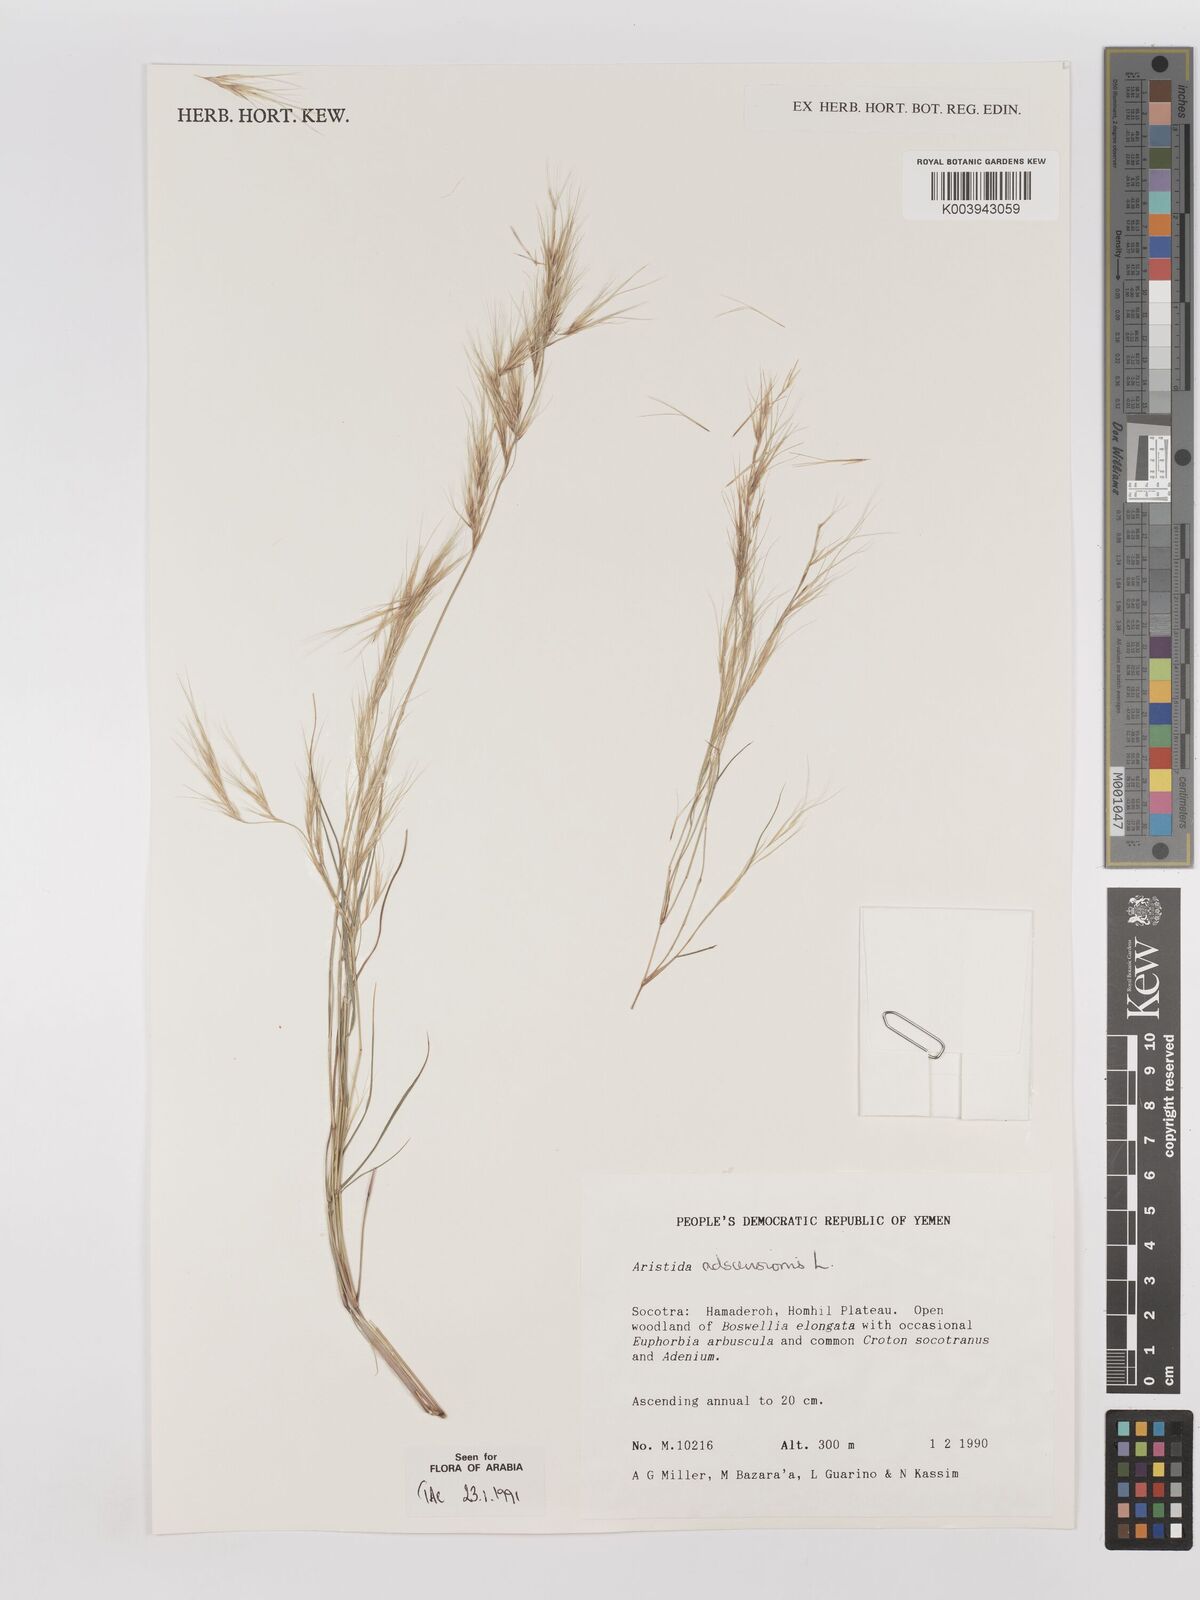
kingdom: Plantae
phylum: Tracheophyta
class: Liliopsida
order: Poales
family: Poaceae
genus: Aristida
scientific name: Aristida adscensionis
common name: Sixweeks threeawn
